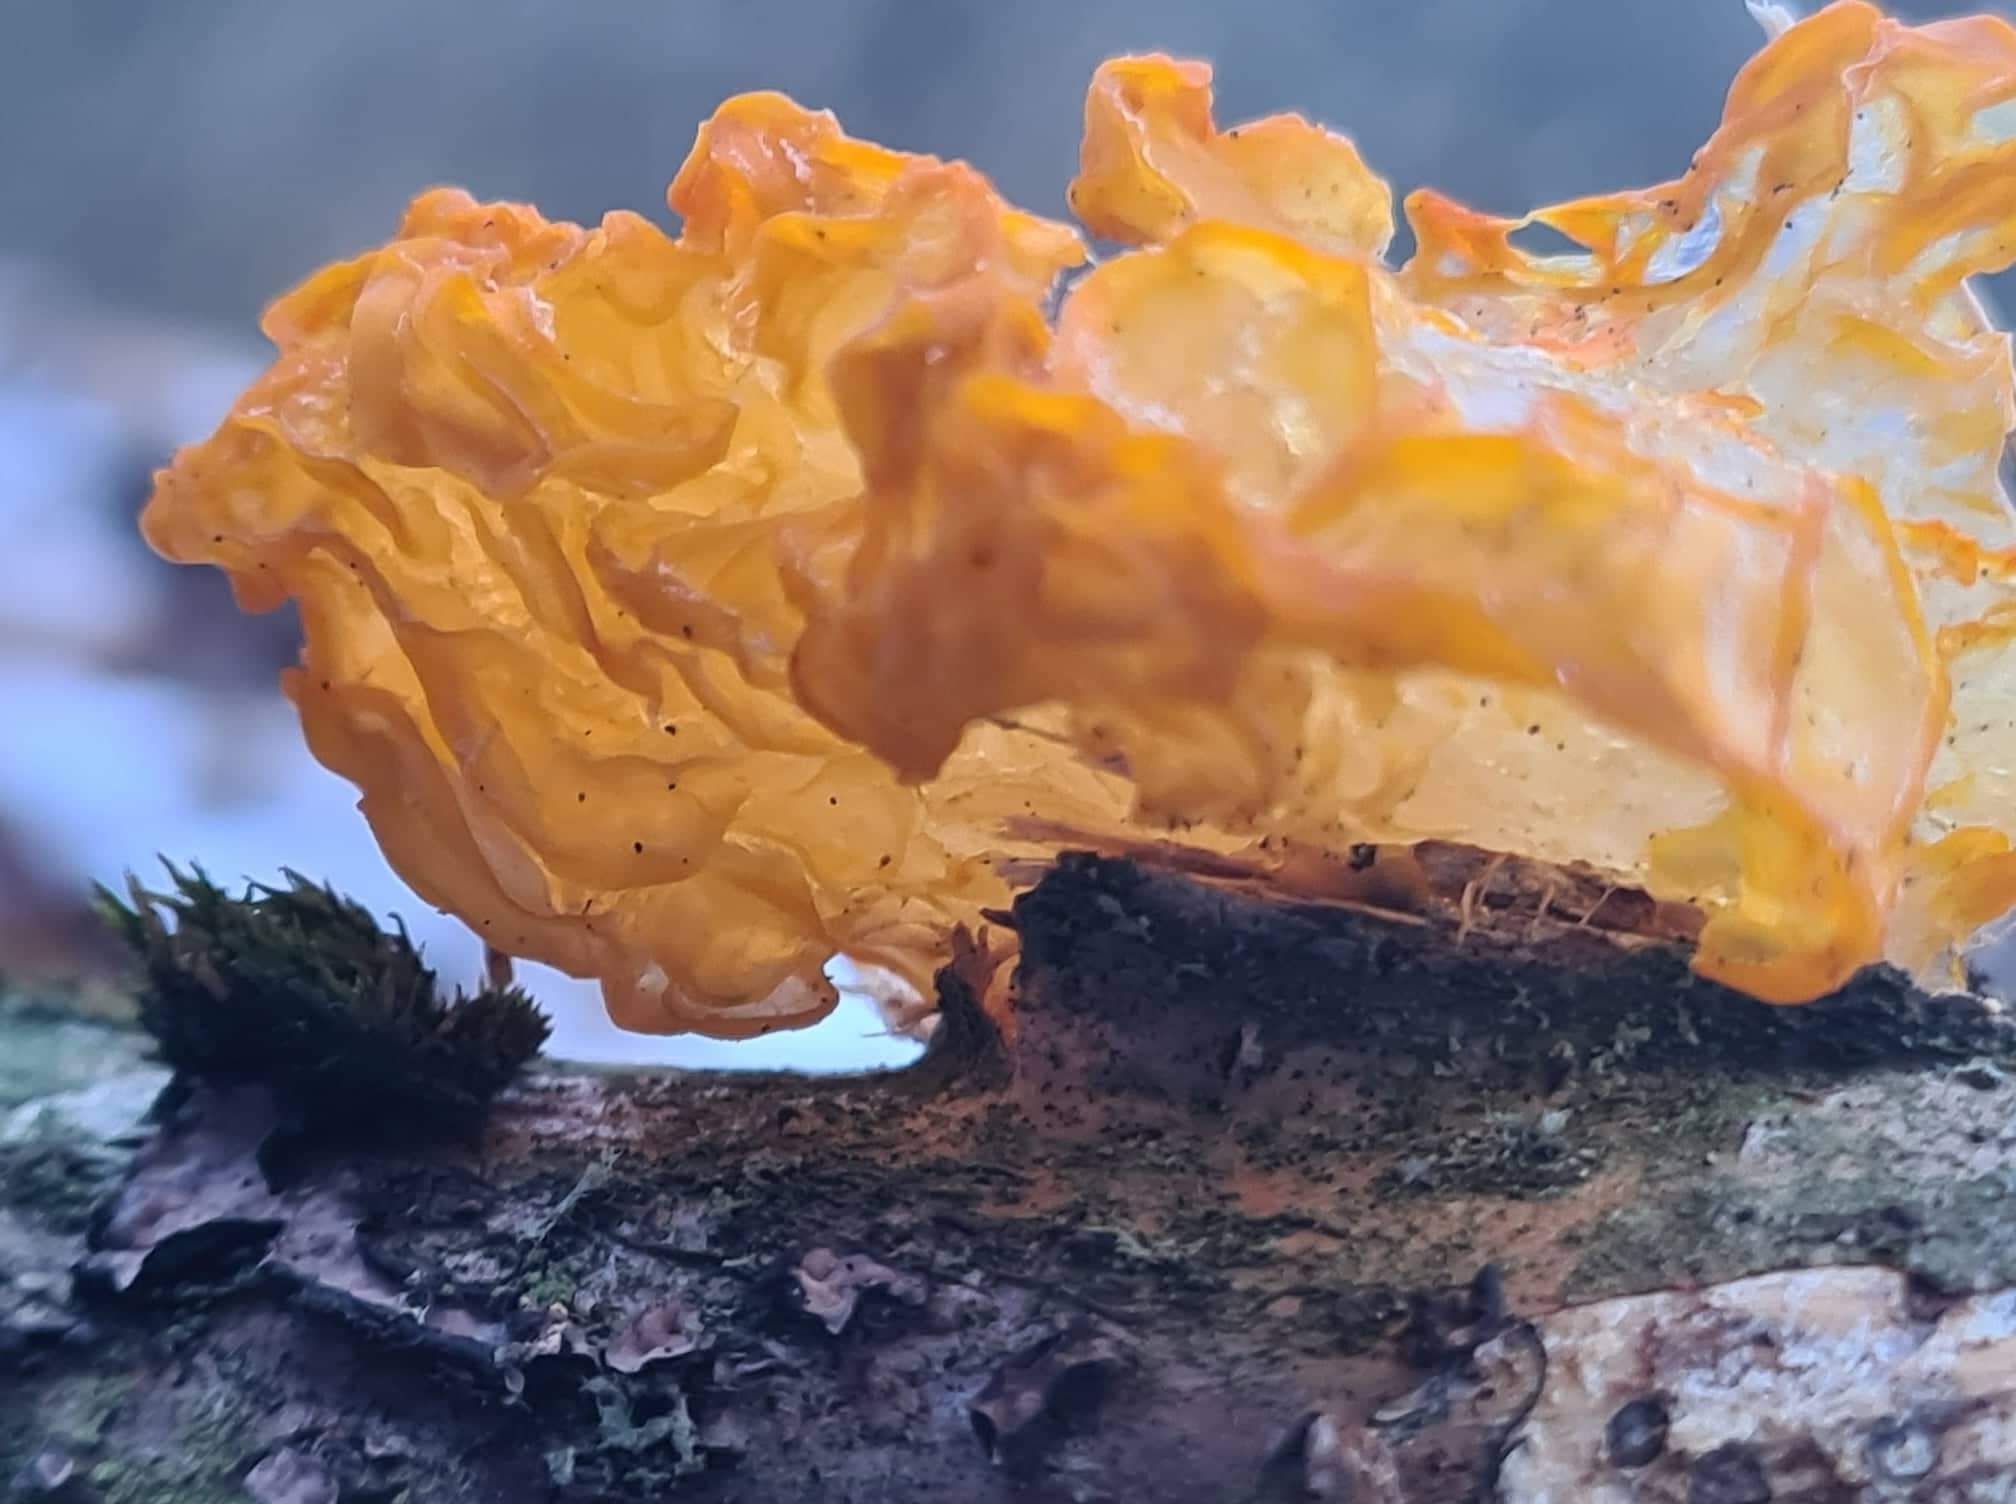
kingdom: Fungi
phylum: Basidiomycota
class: Tremellomycetes
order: Tremellales
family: Tremellaceae
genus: Tremella
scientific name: Tremella mesenterica
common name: gul bævresvamp
